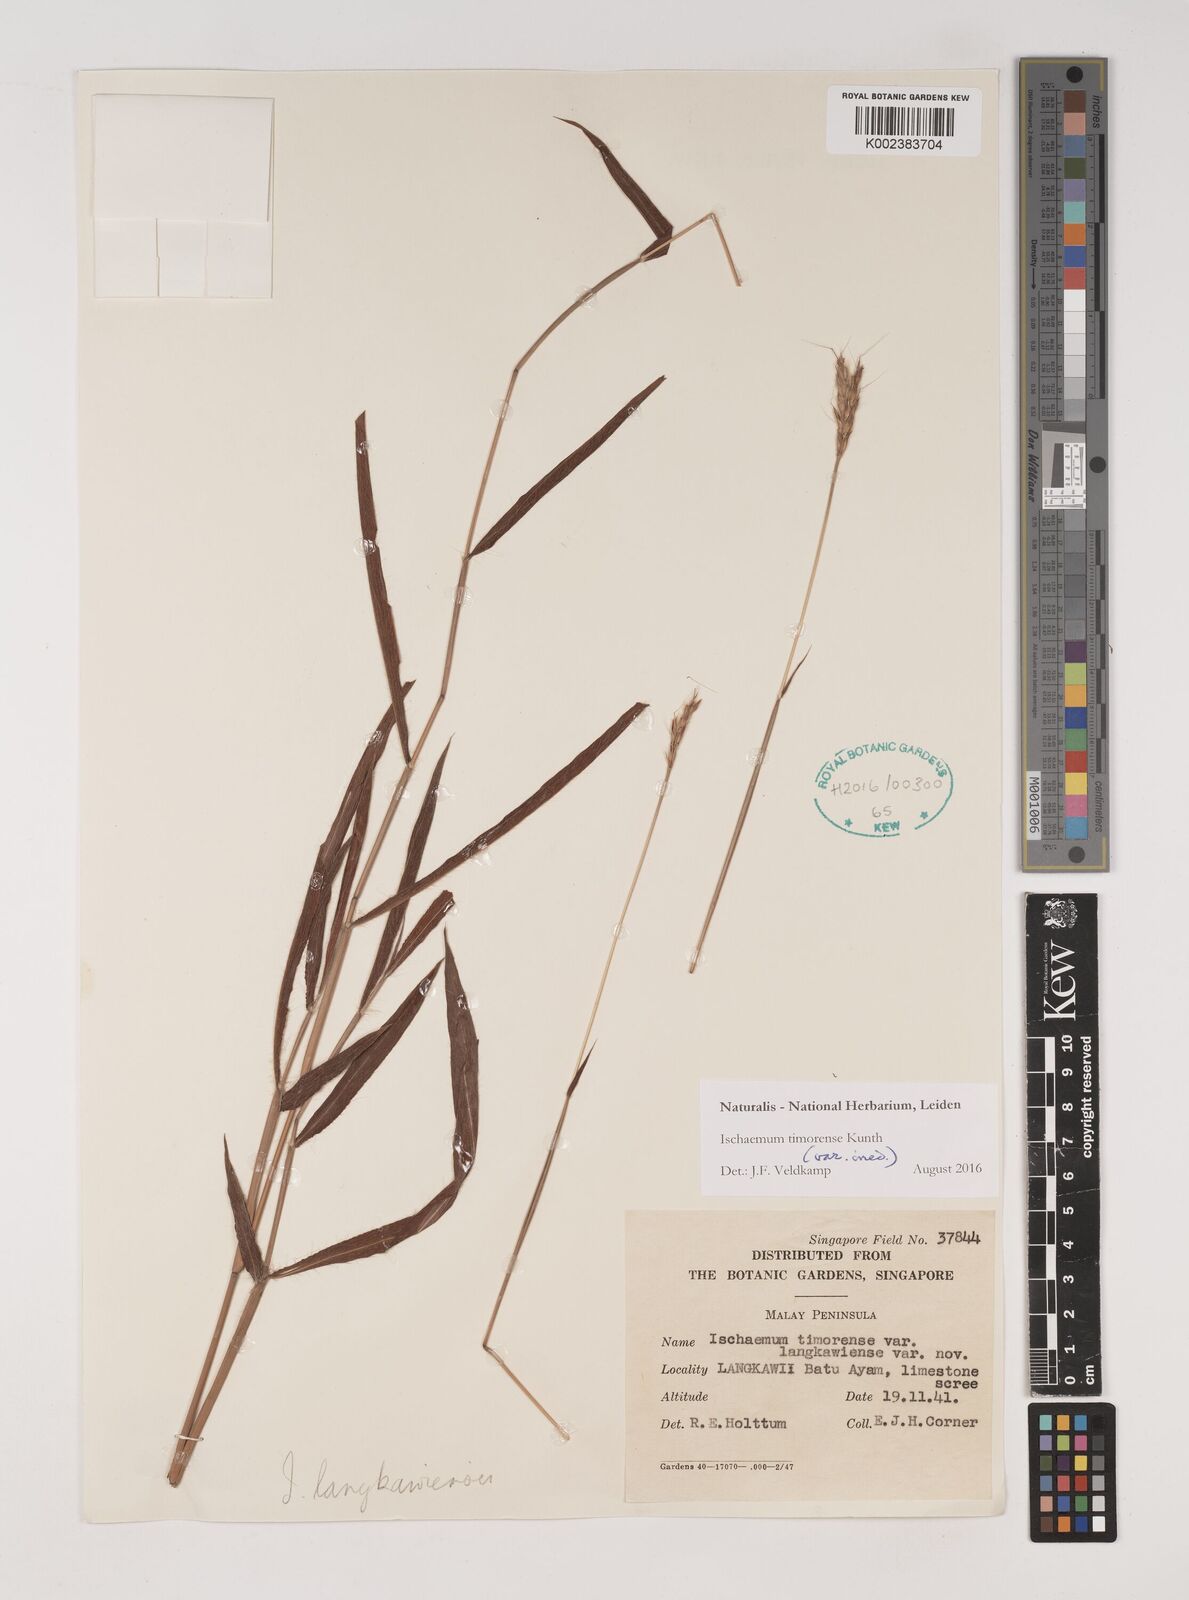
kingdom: Plantae
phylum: Tracheophyta
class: Liliopsida
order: Poales
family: Poaceae
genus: Ischaemum
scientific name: Ischaemum timorense
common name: Stalkleaf murainagrass
